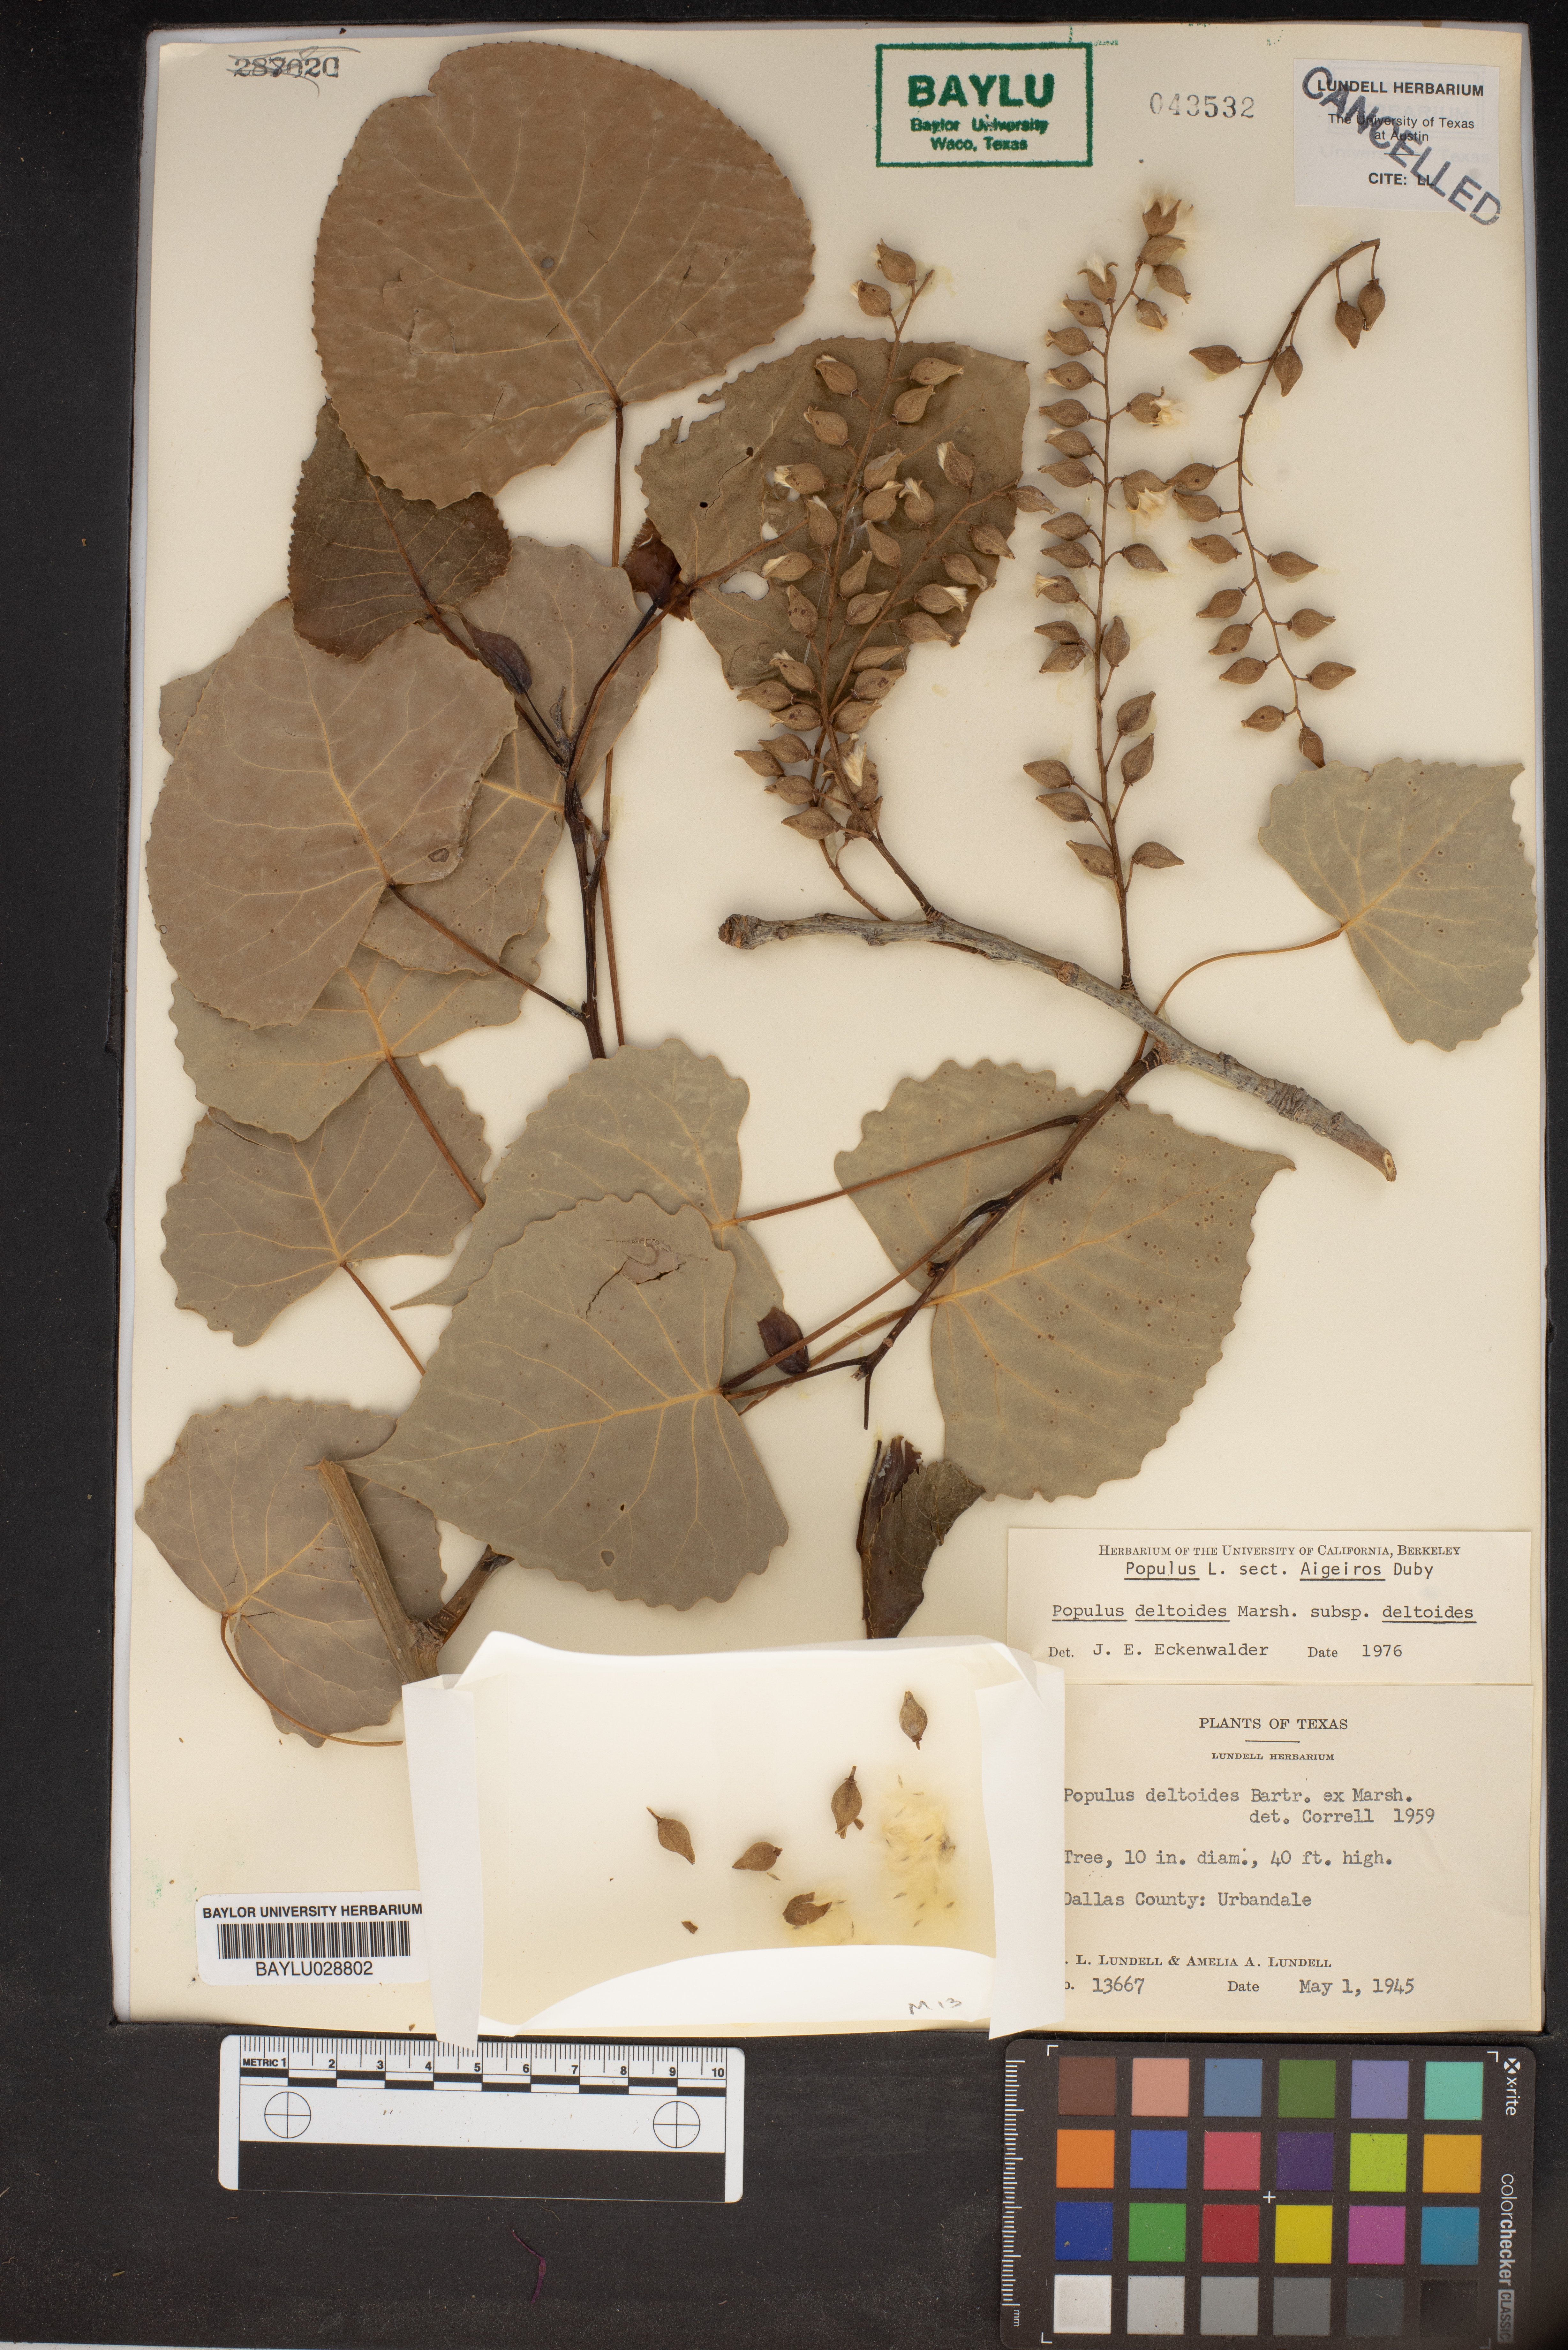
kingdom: Plantae
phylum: Tracheophyta
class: Magnoliopsida
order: Malpighiales
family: Salicaceae
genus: Populus
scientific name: Populus deltoides
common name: Eastern cottonwood
